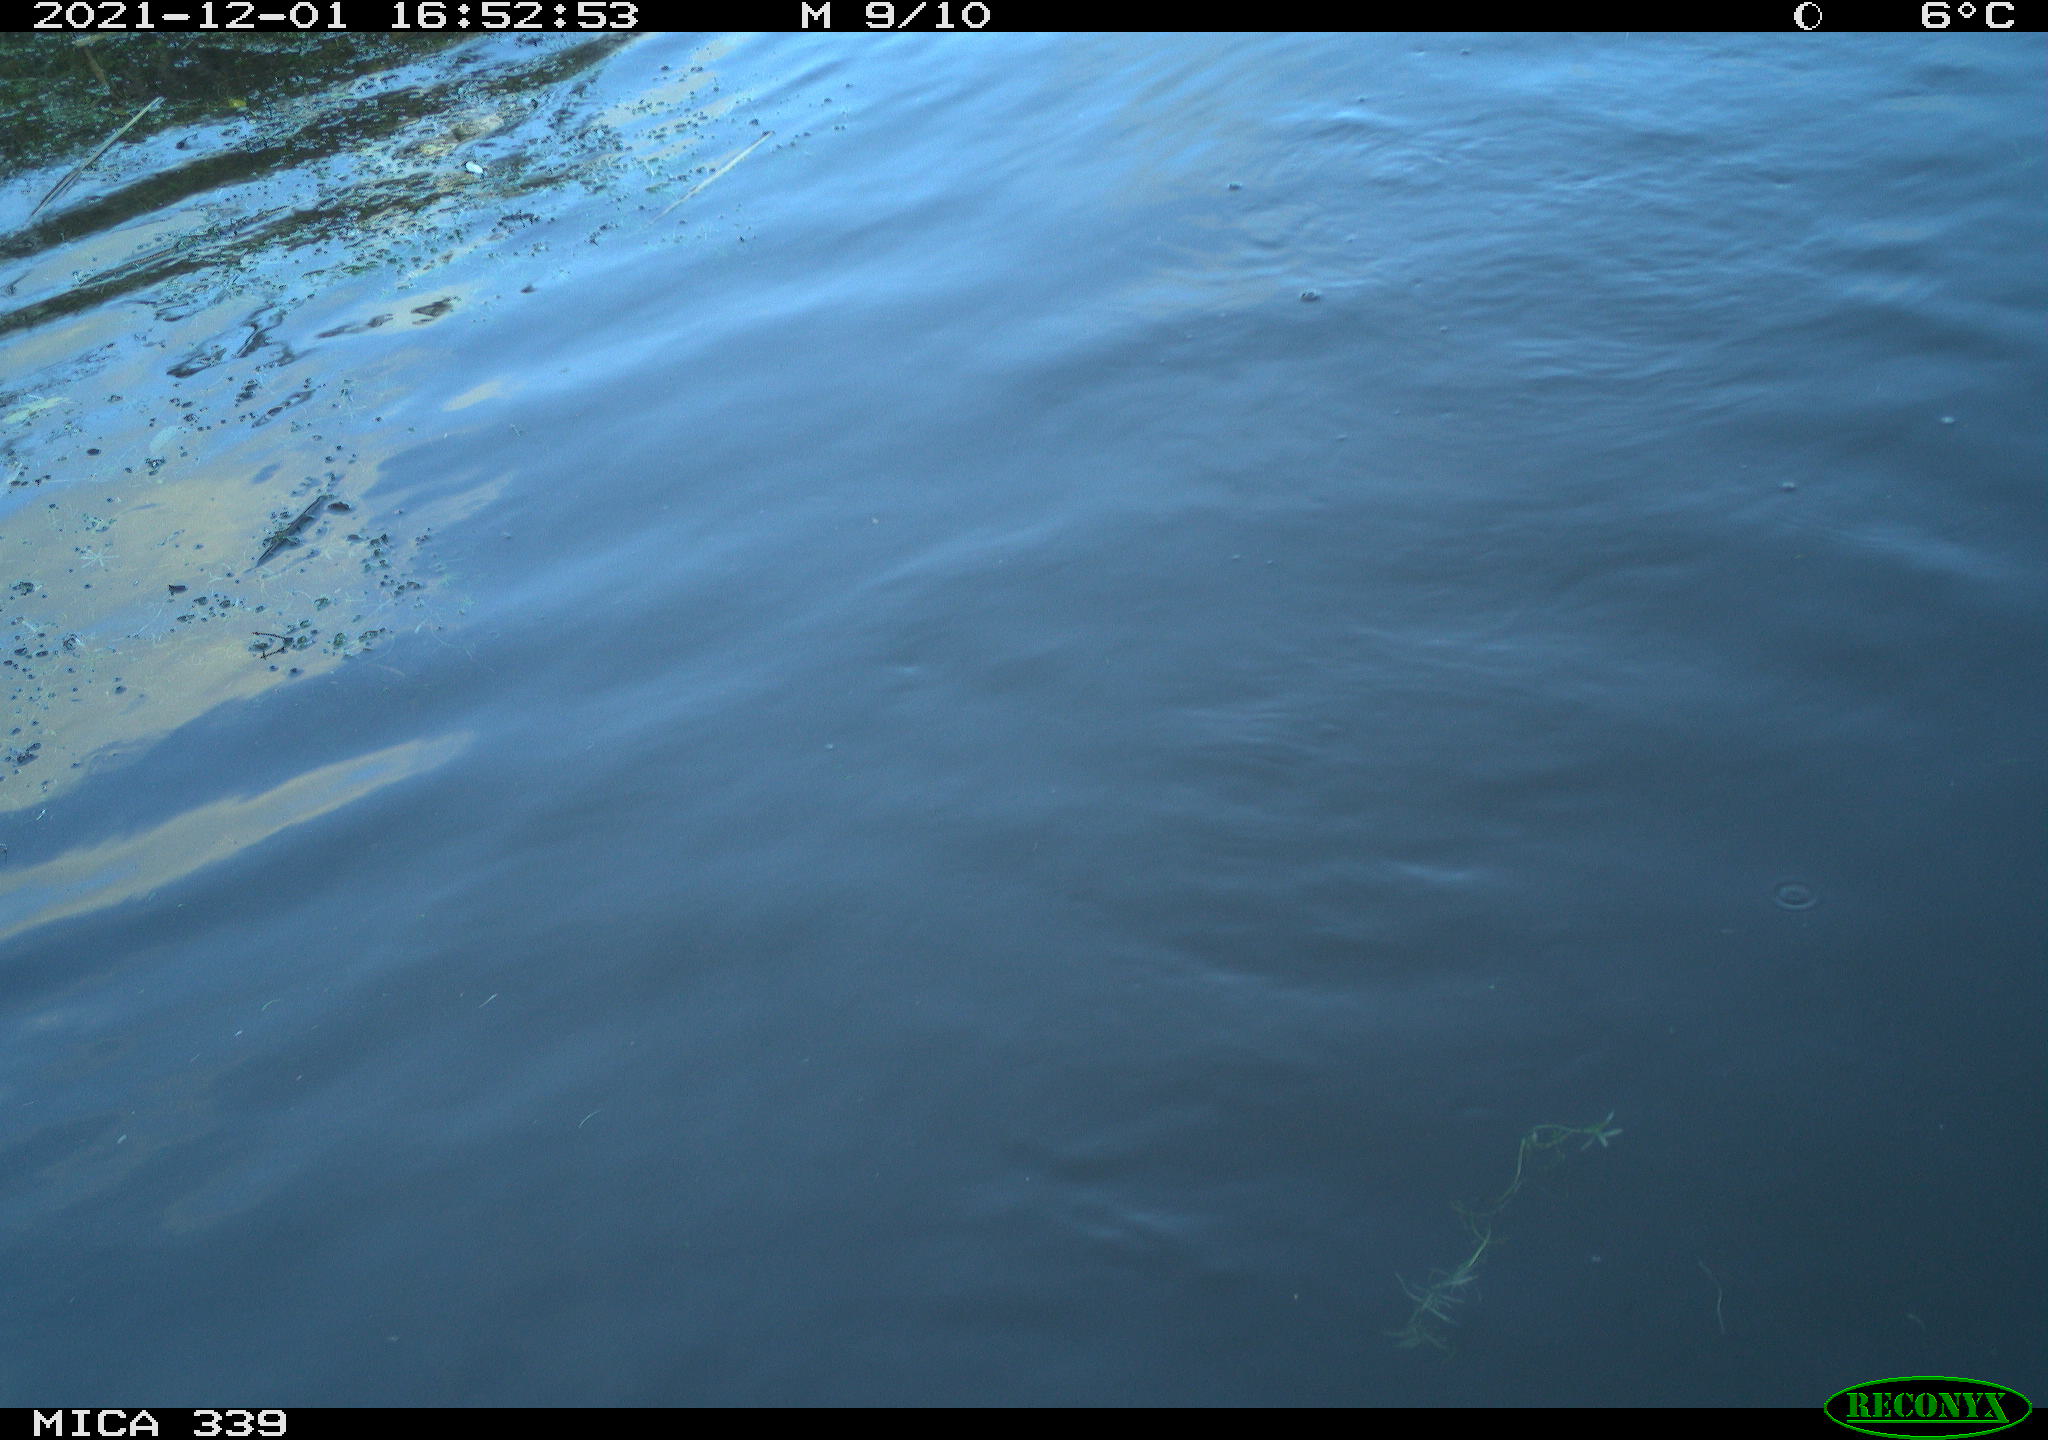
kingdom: Animalia
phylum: Chordata
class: Aves
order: Suliformes
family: Phalacrocoracidae
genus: Phalacrocorax
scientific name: Phalacrocorax carbo
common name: Great cormorant
